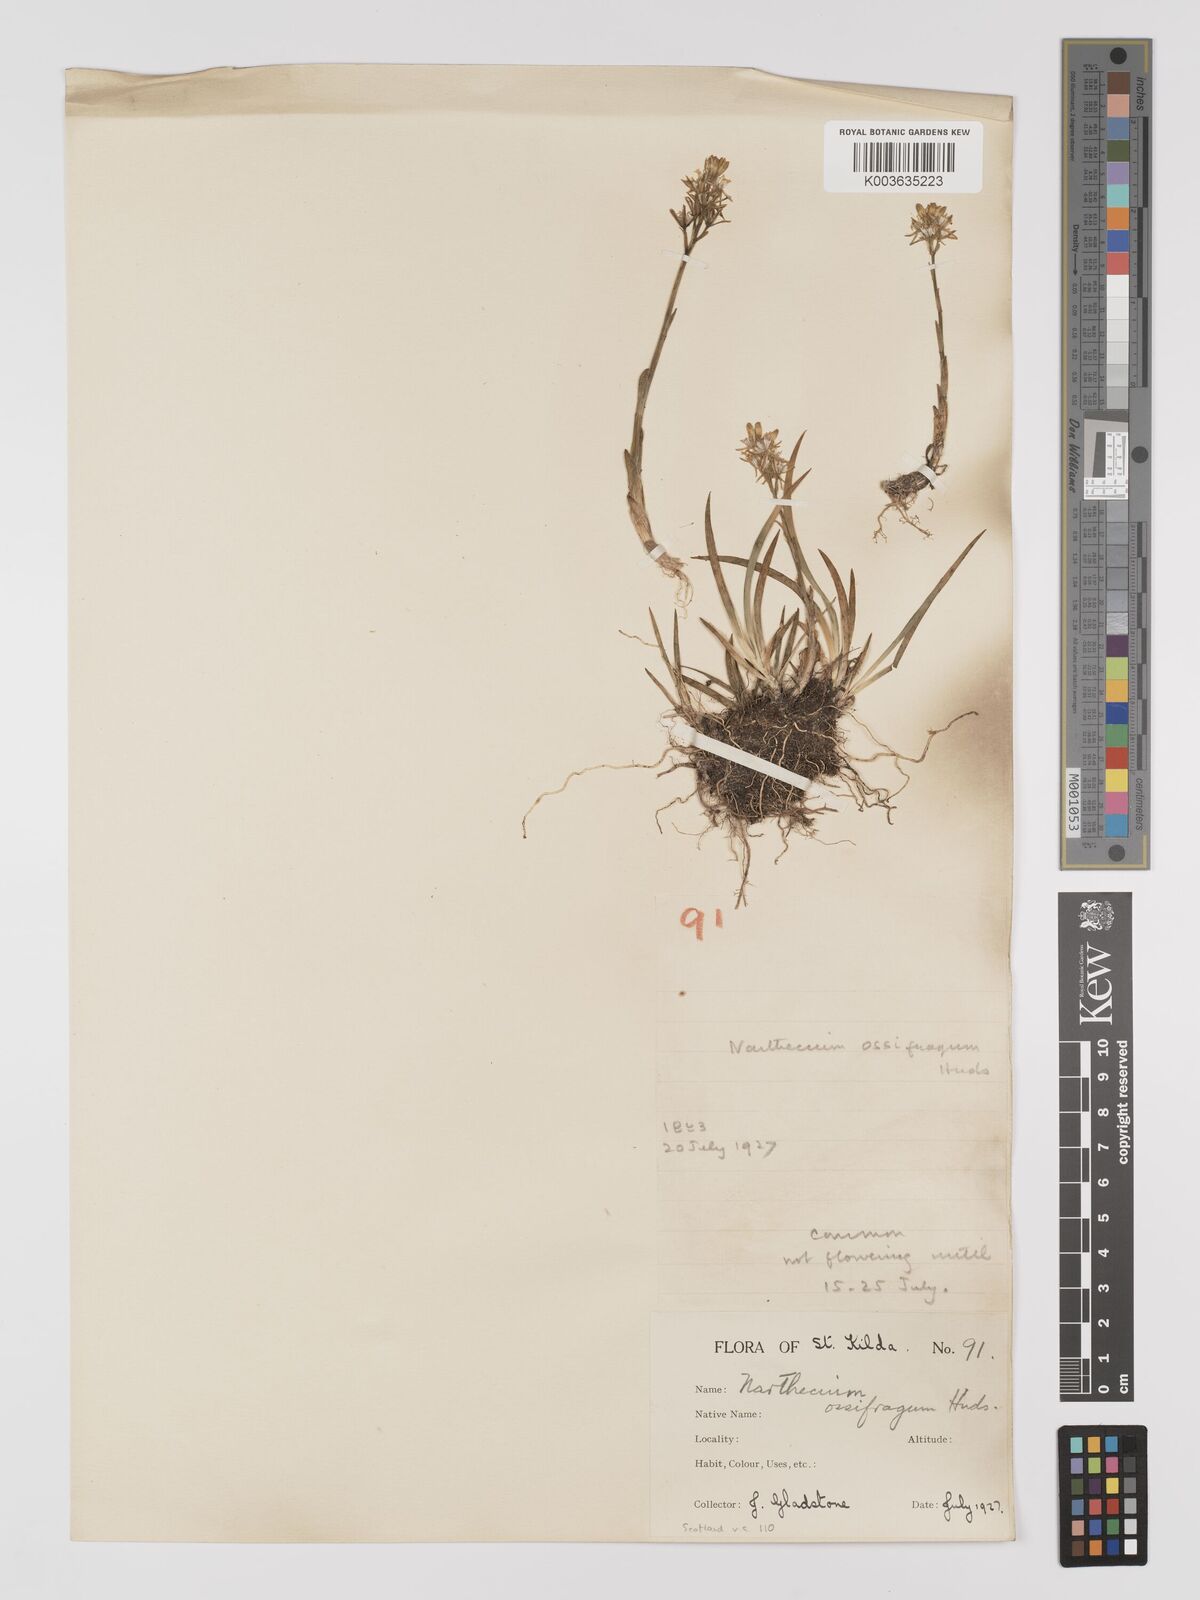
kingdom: Plantae
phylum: Tracheophyta
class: Liliopsida
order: Dioscoreales
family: Nartheciaceae
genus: Narthecium
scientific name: Narthecium
